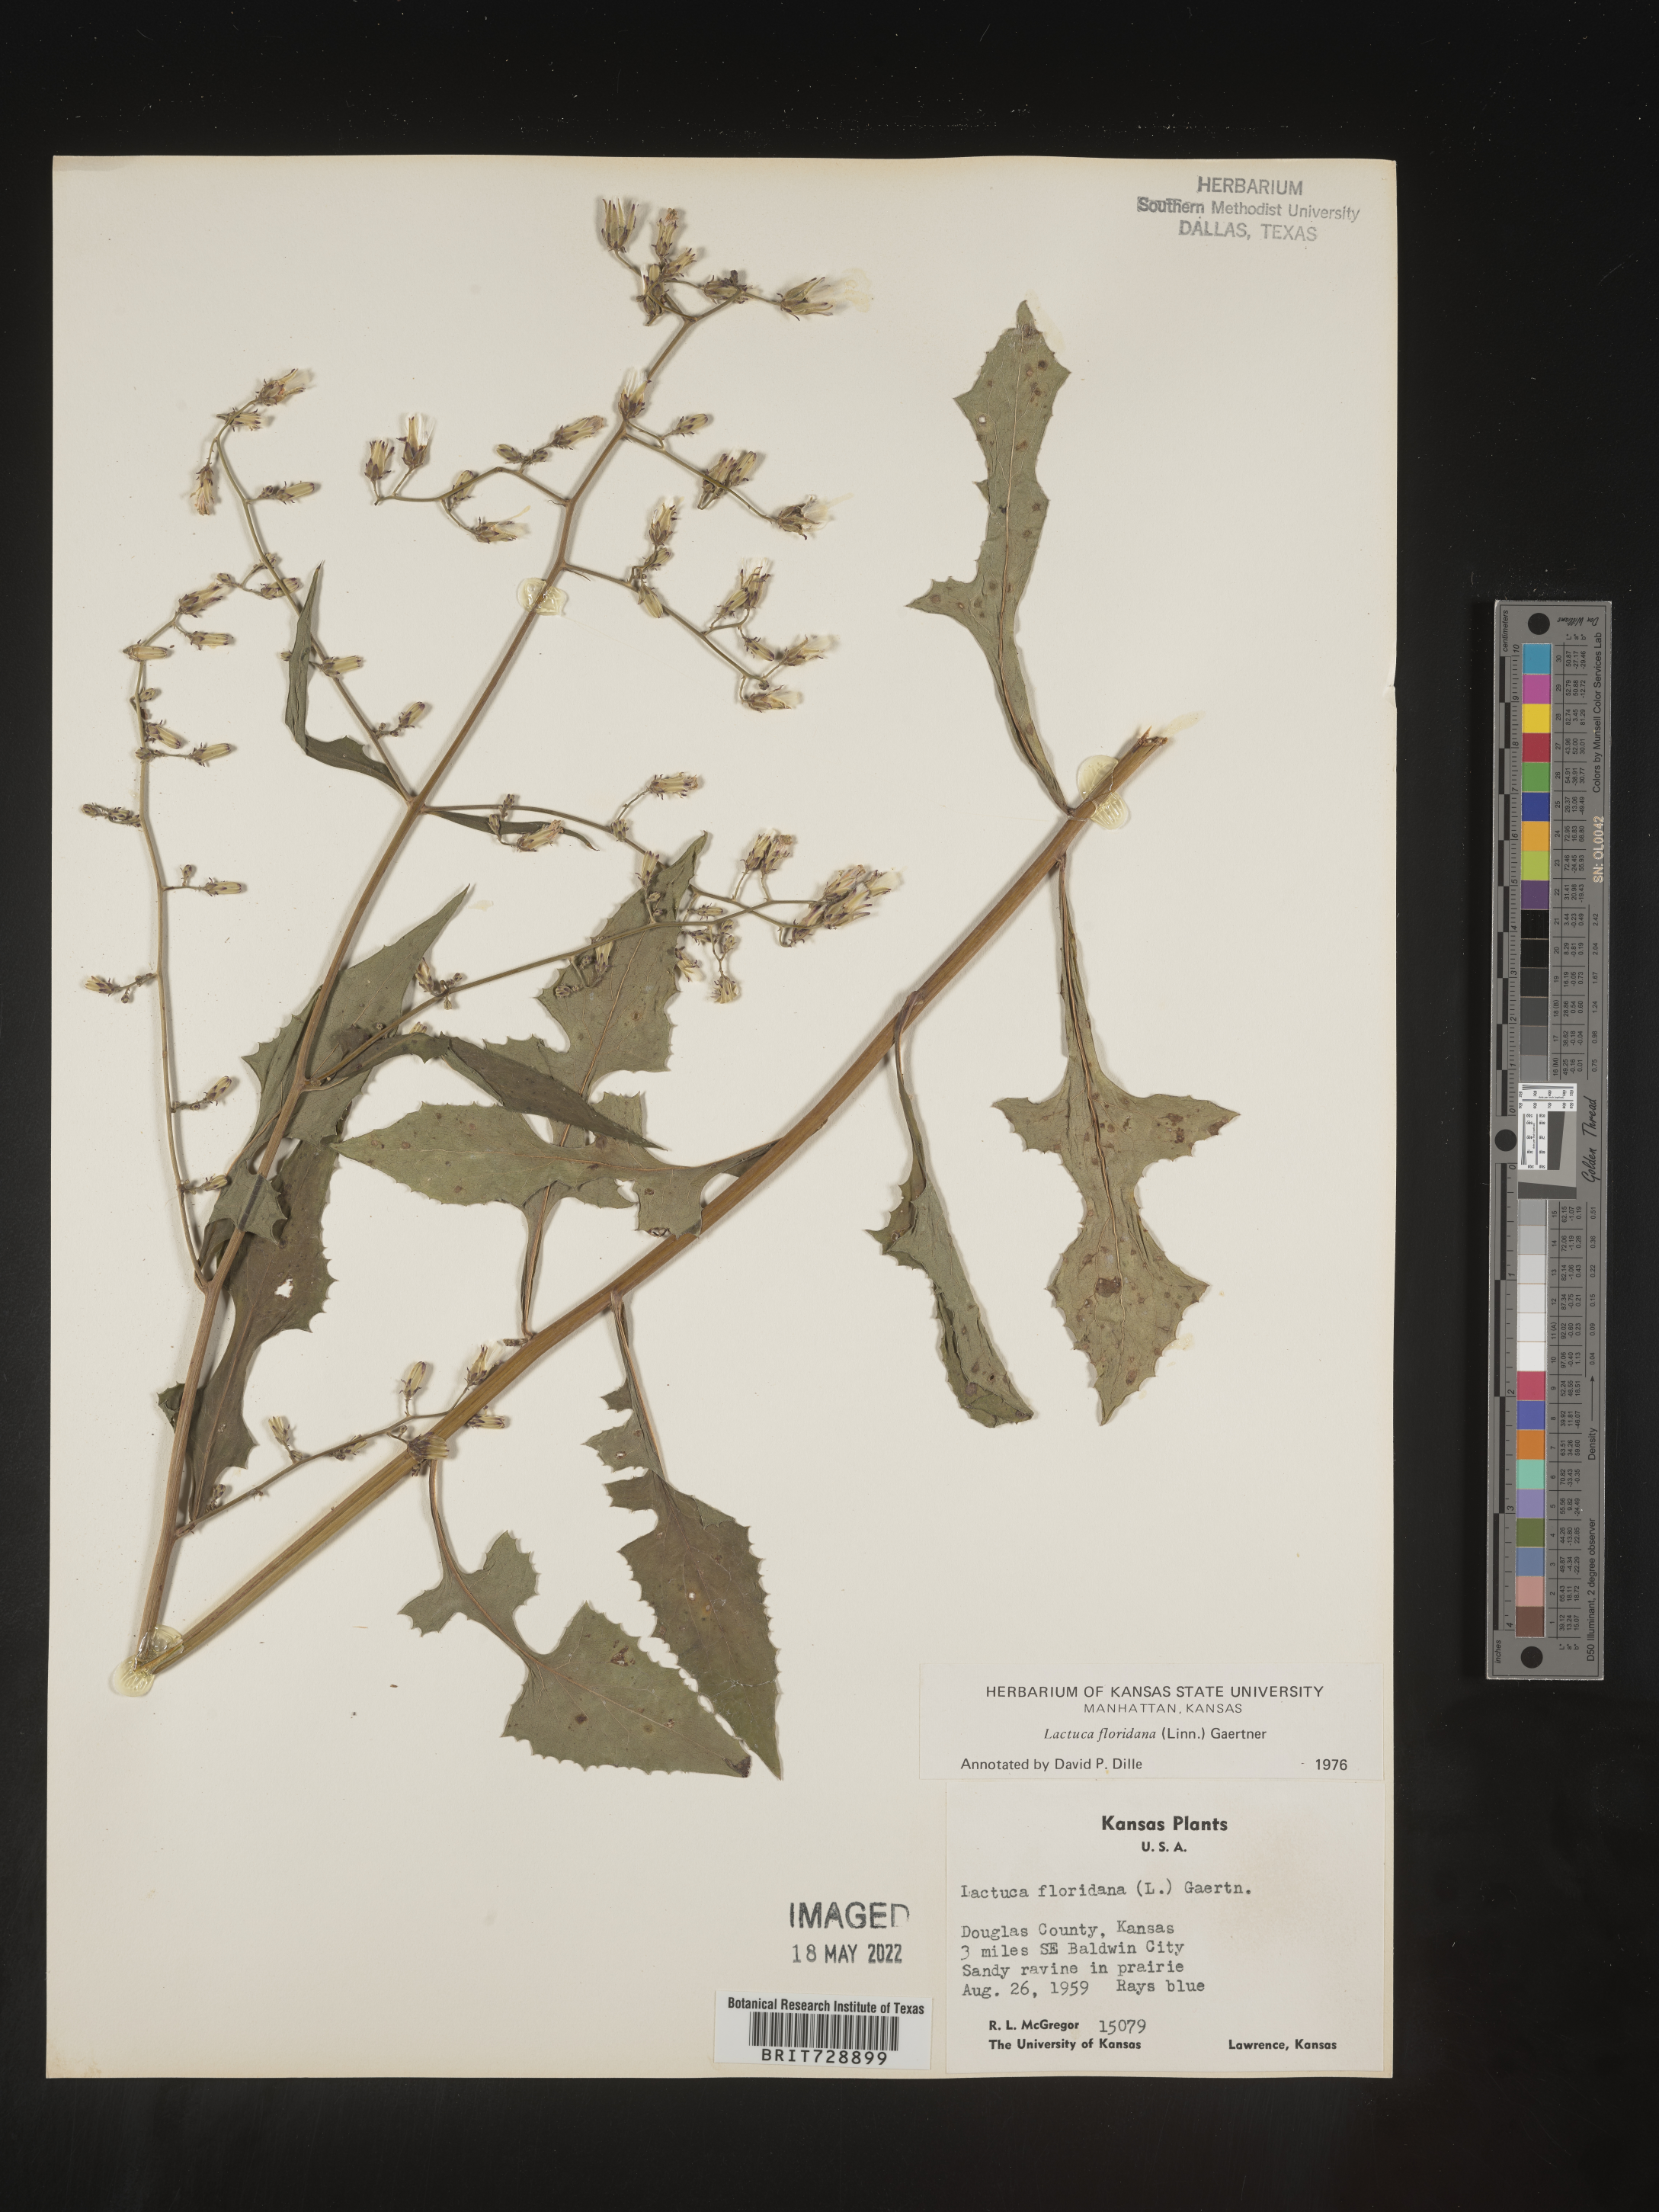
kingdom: Plantae
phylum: Tracheophyta
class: Magnoliopsida
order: Asterales
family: Asteraceae
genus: Lactuca
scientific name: Lactuca floridana
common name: Woodland lettuce
